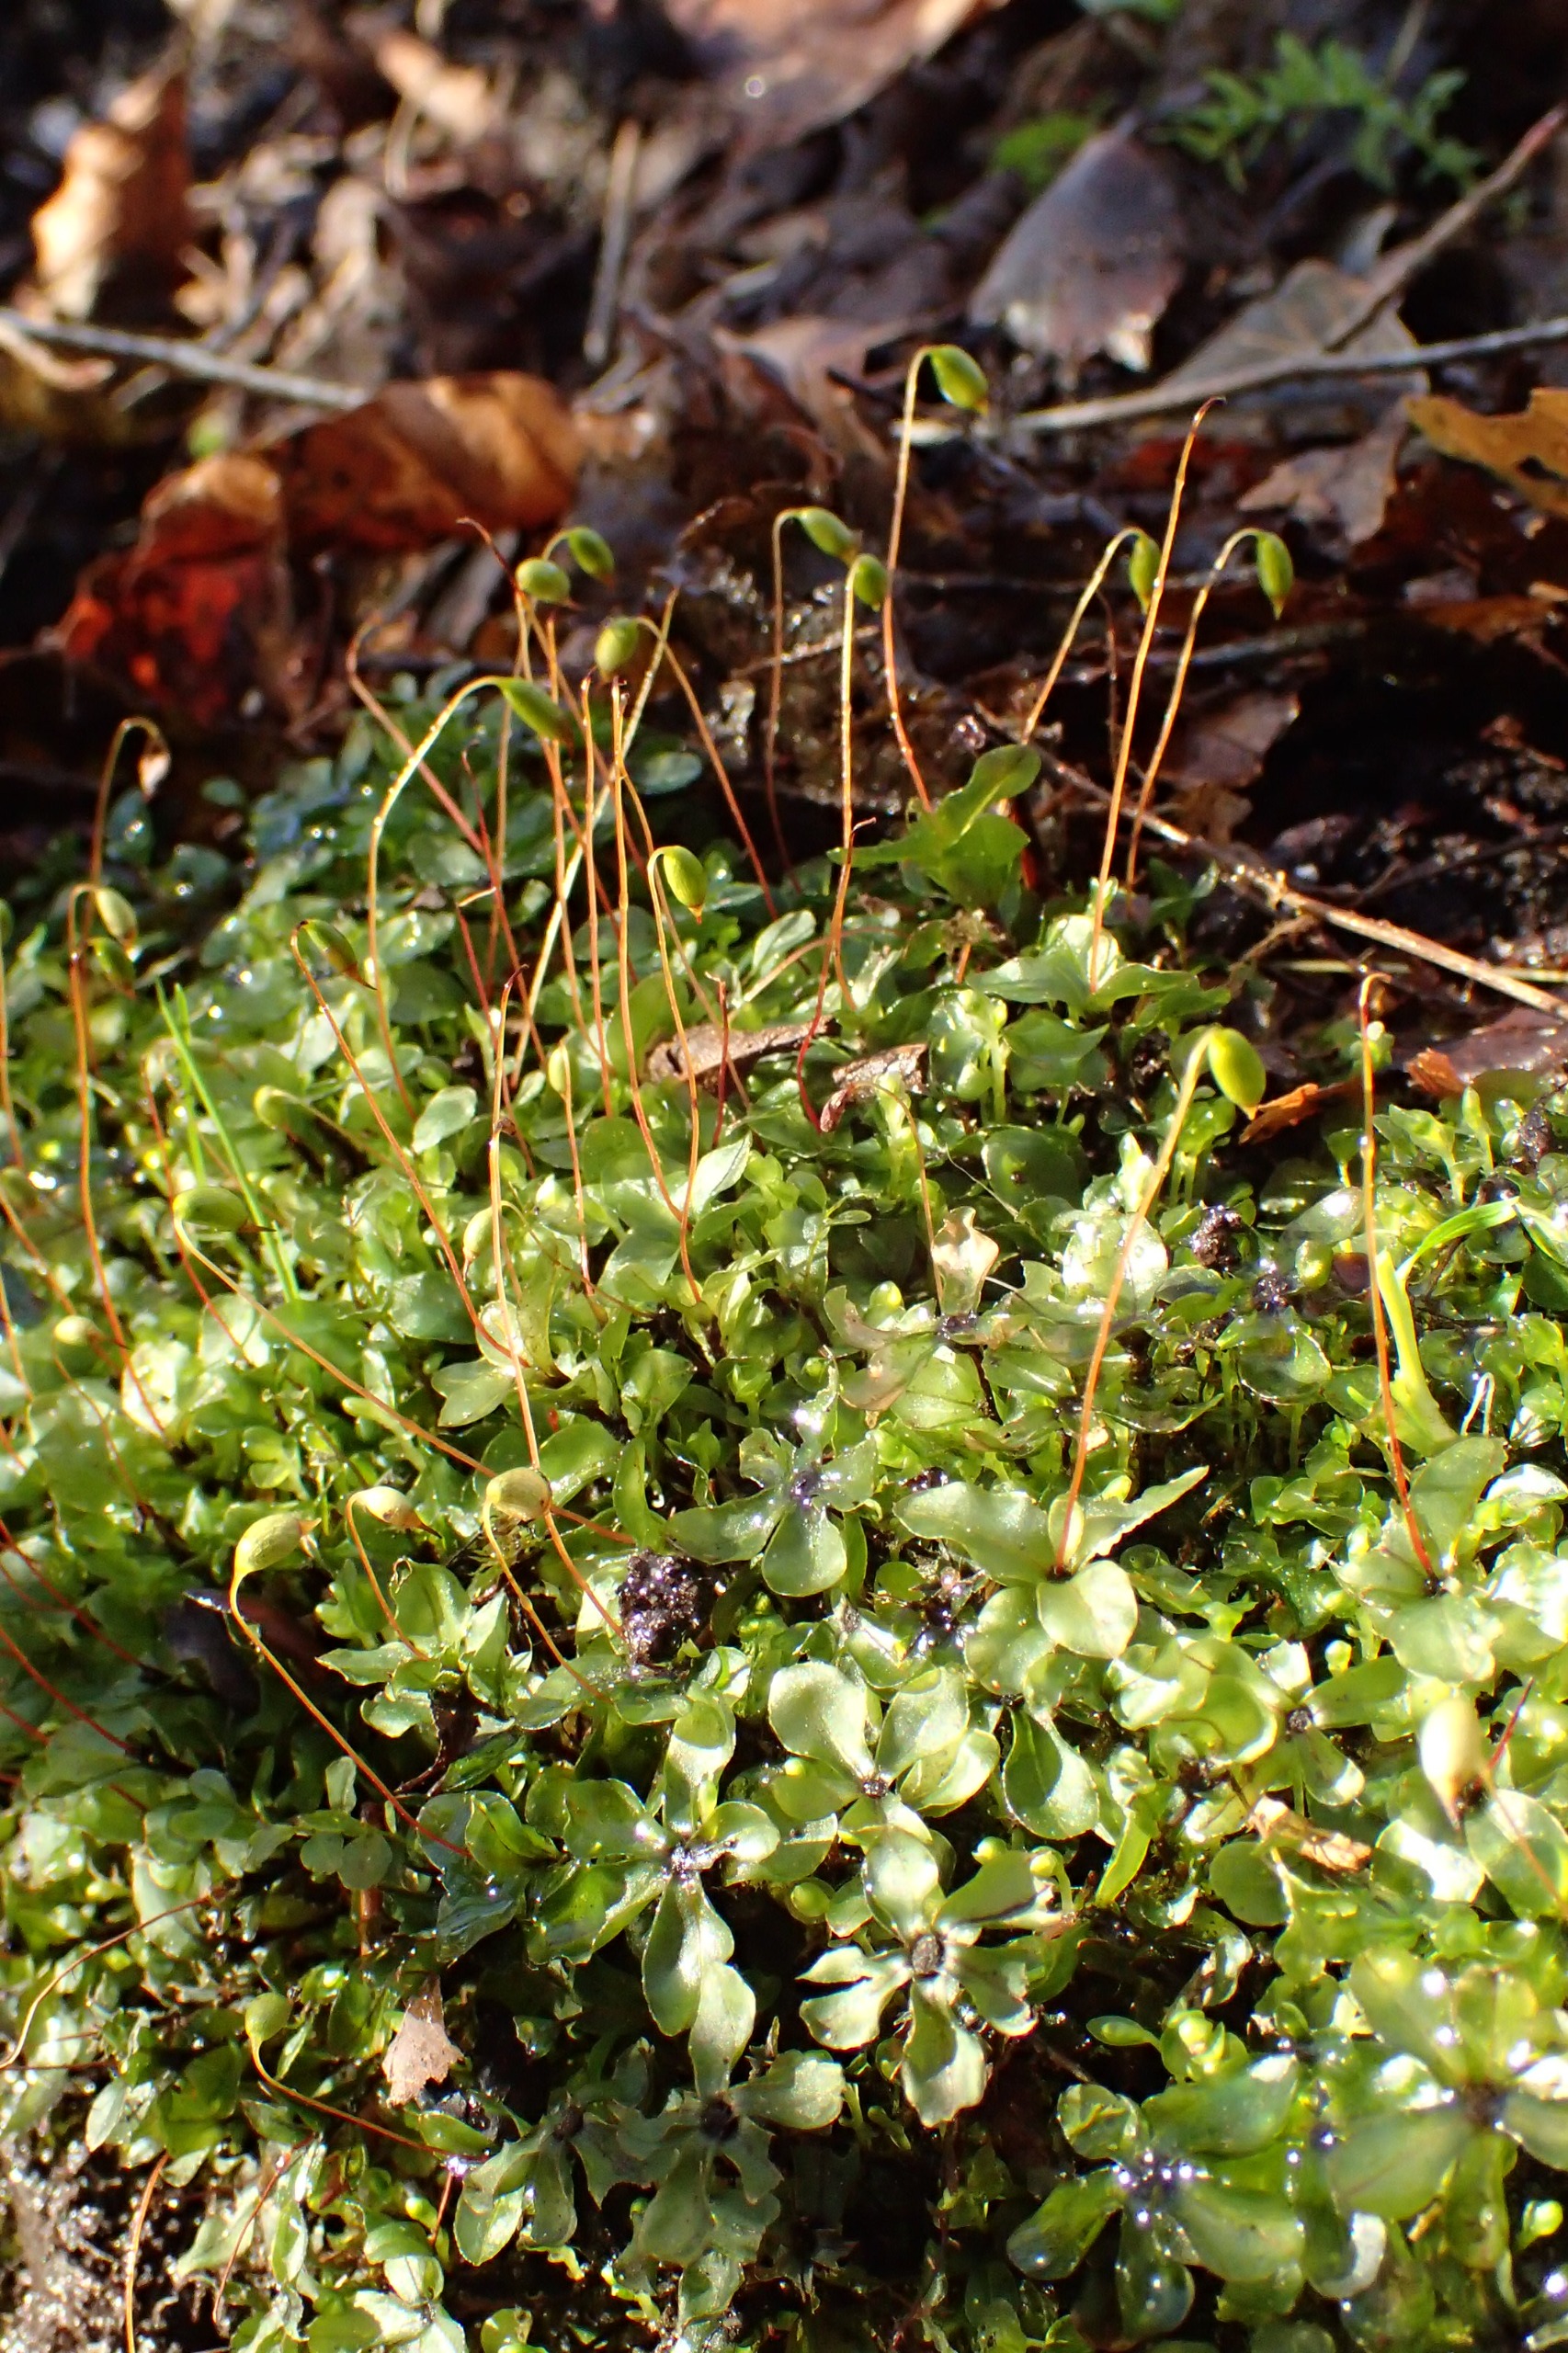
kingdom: Plantae
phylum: Bryophyta
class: Bryopsida
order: Bryales
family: Mniaceae
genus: Rhizomnium
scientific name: Rhizomnium punctatum
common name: Almindelig bredblad
